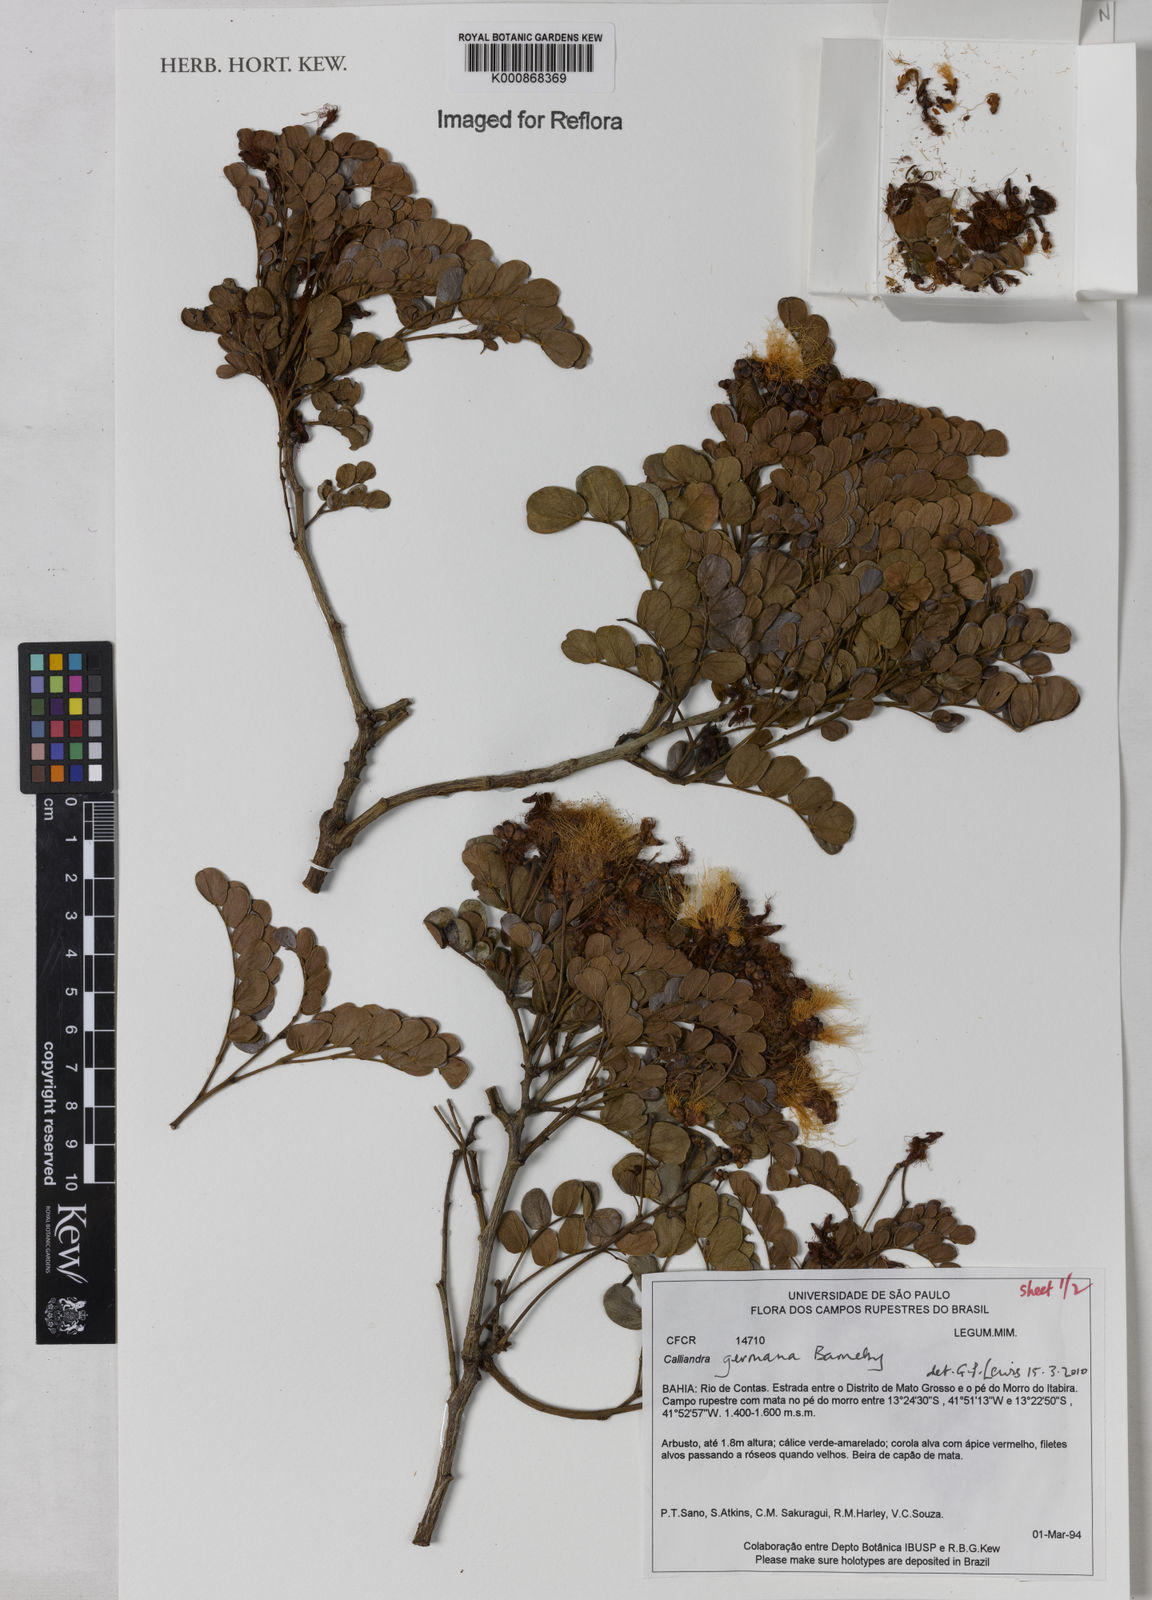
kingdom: Plantae
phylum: Tracheophyta
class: Magnoliopsida
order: Fabales
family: Fabaceae
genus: Calliandra
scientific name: Calliandra germana
